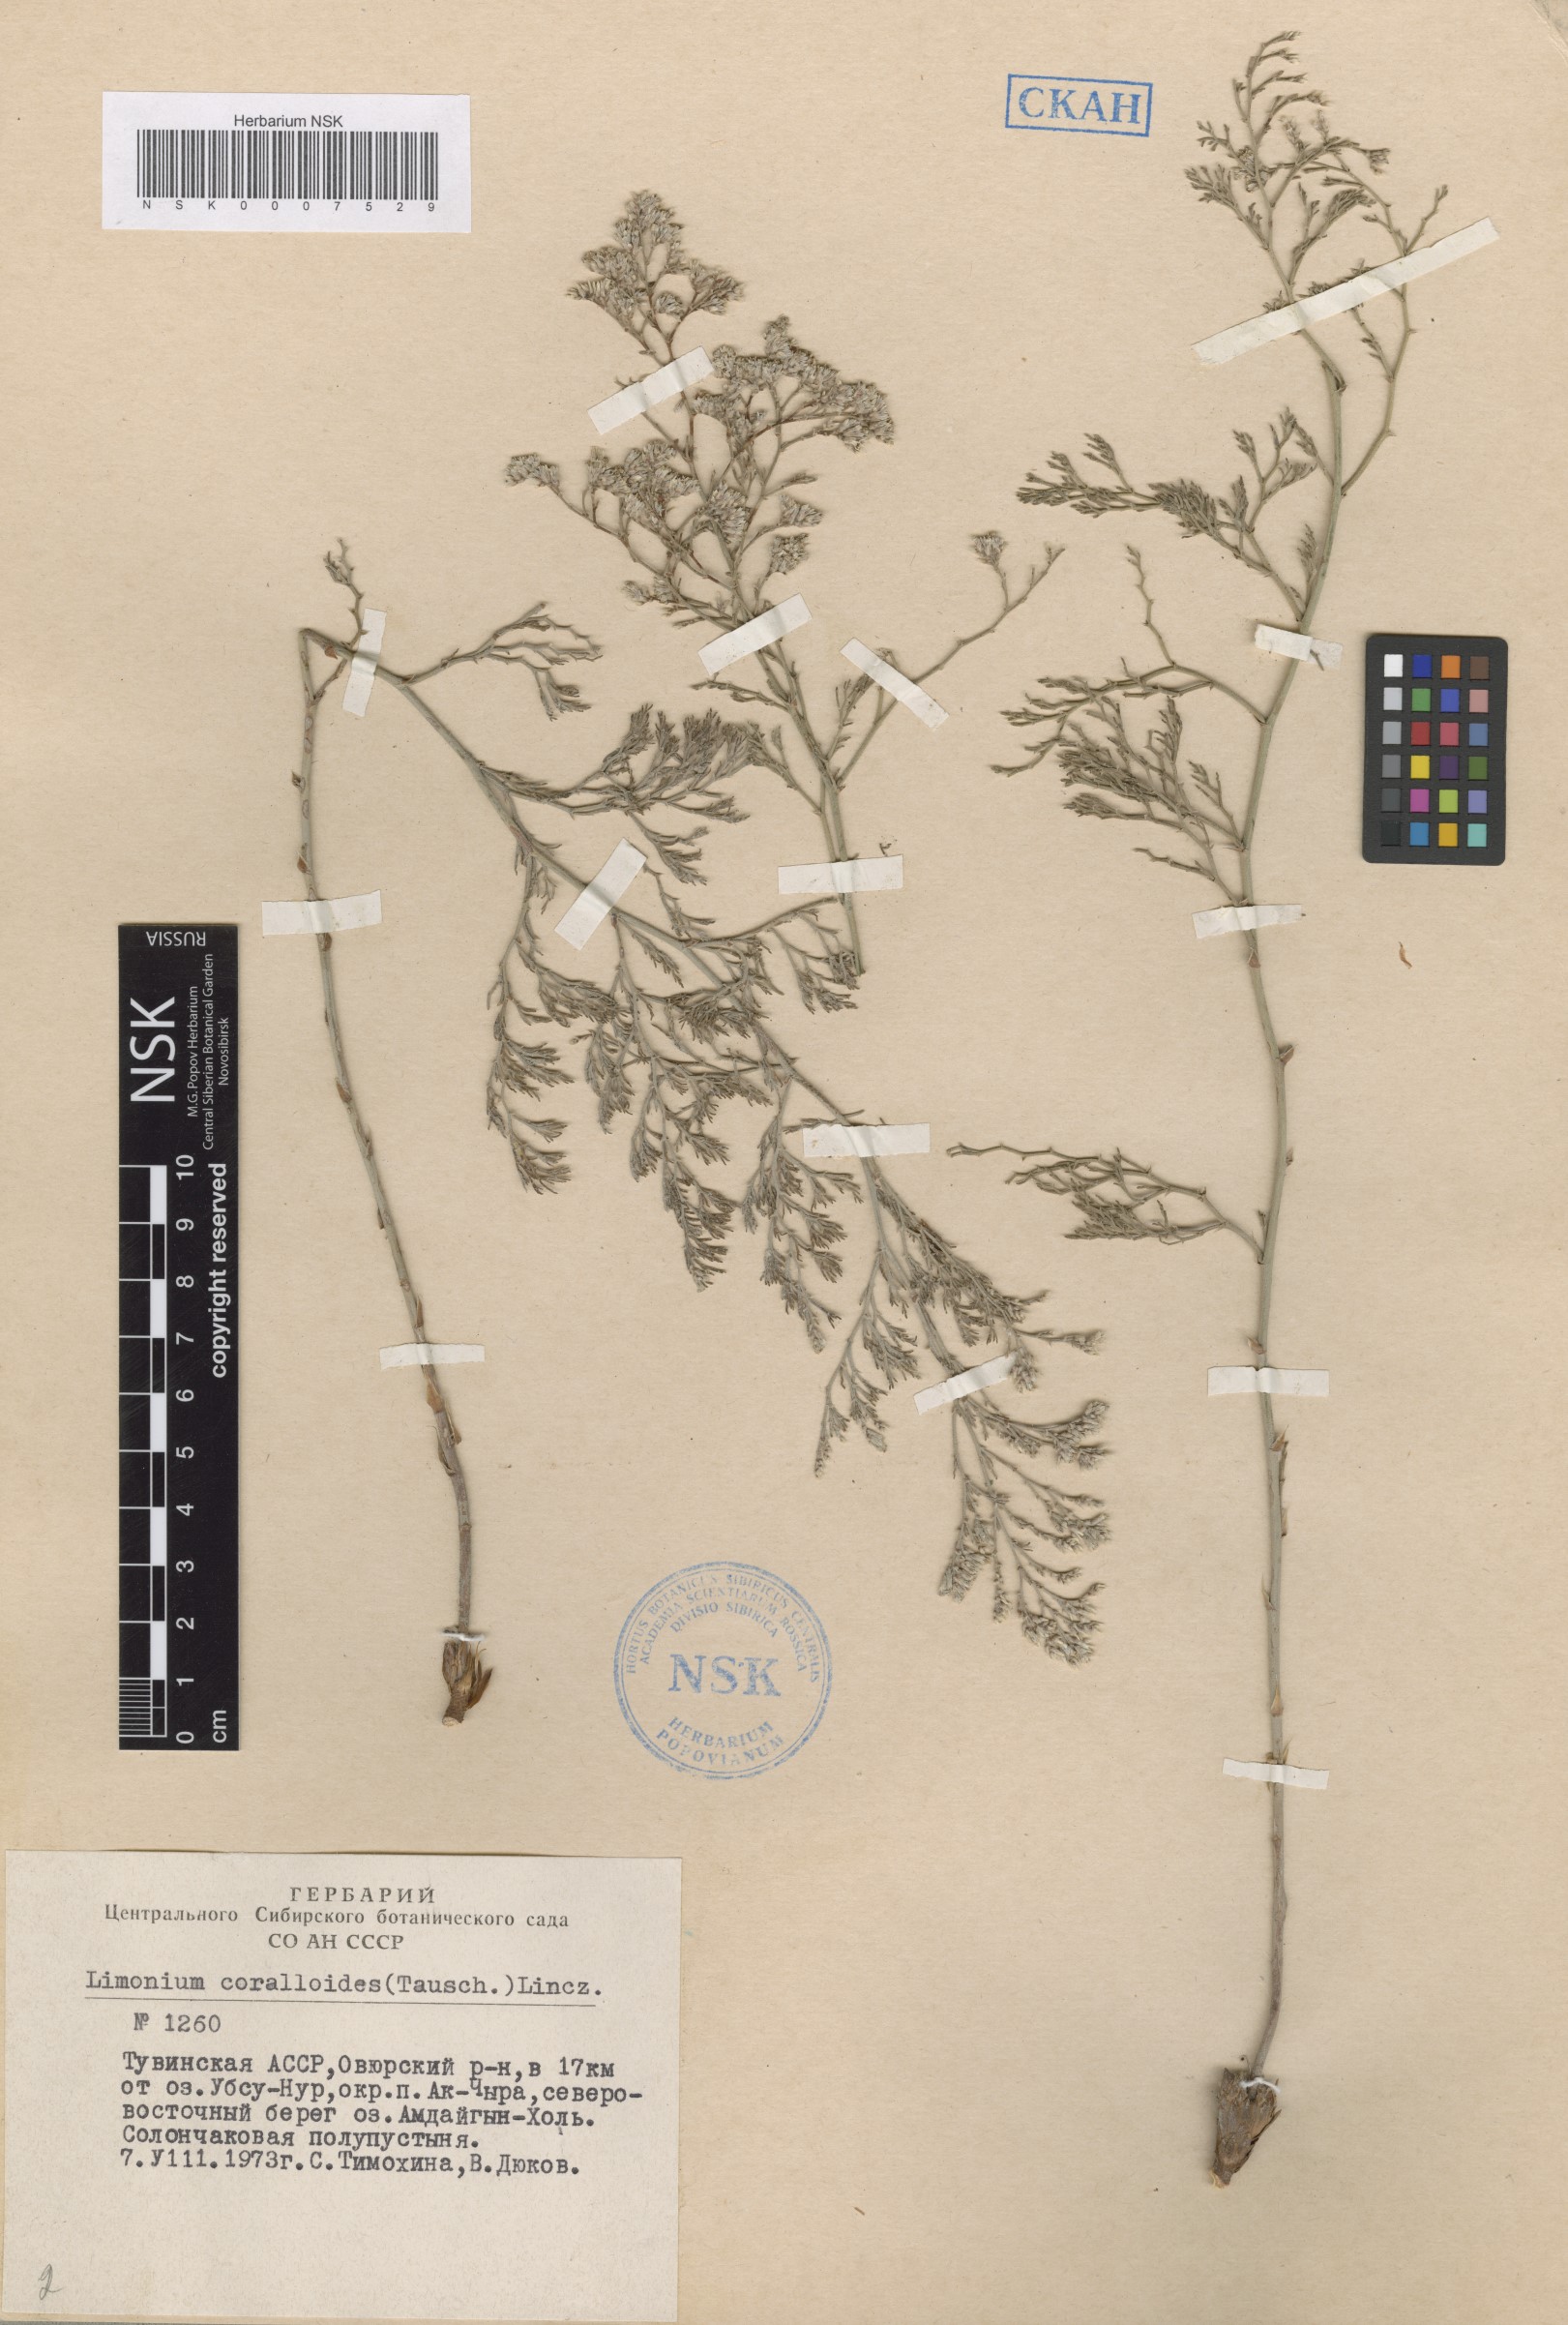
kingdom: Plantae
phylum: Tracheophyta
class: Magnoliopsida
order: Caryophyllales
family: Plumbaginaceae
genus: Limonium
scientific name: Limonium coralloides
